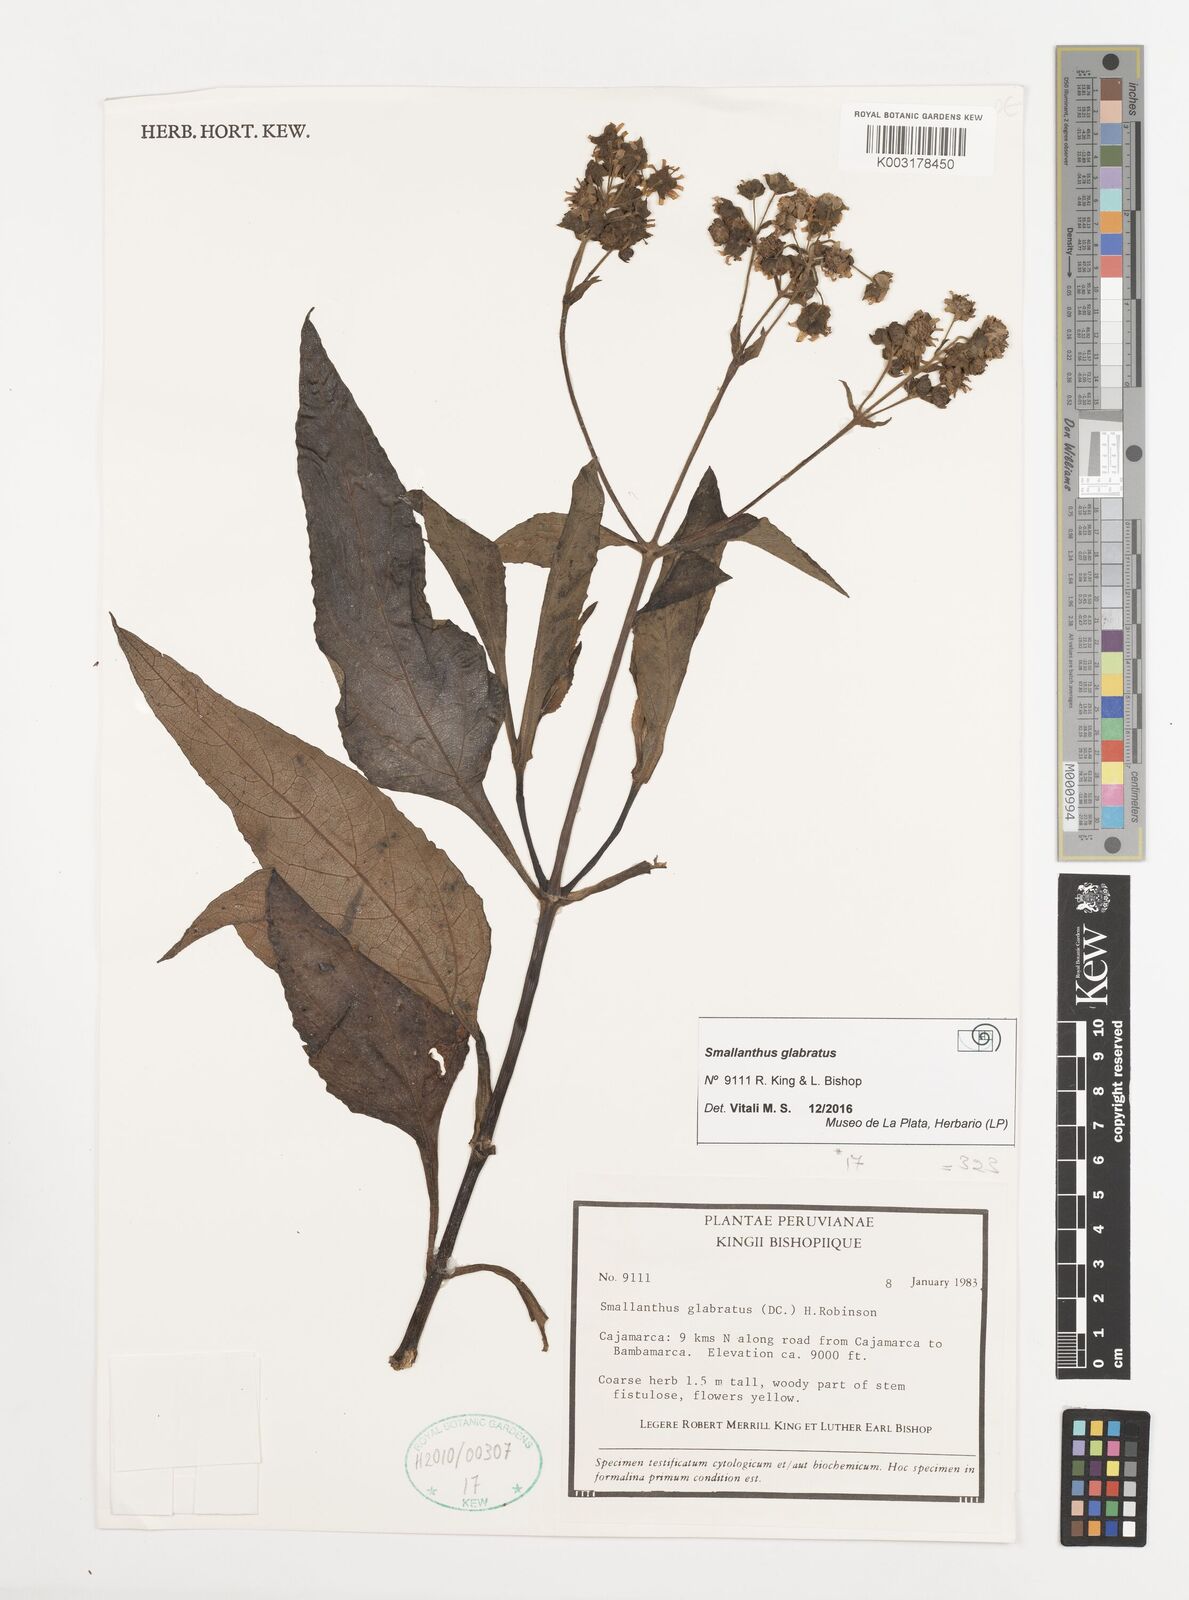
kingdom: Plantae
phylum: Tracheophyta
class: Magnoliopsida
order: Asterales
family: Asteraceae
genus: Smallanthus
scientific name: Smallanthus glabratus
